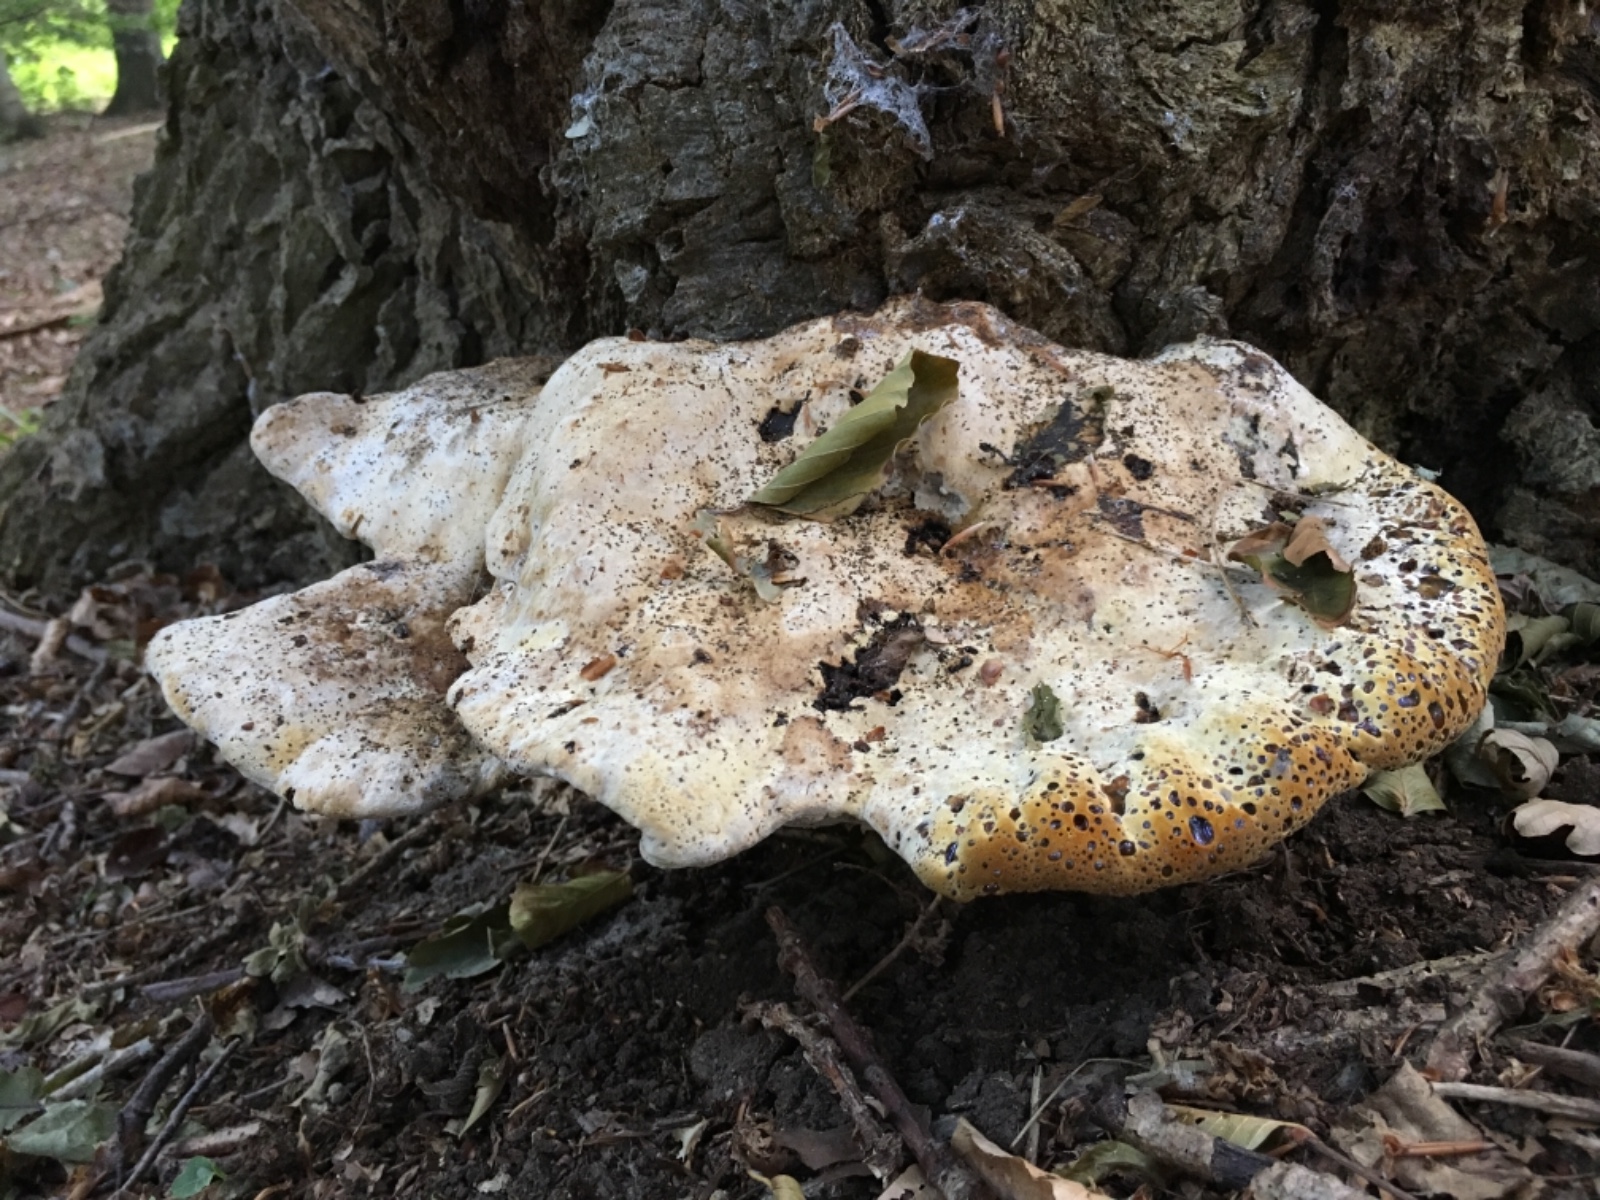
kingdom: Fungi
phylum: Basidiomycota
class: Agaricomycetes
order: Hymenochaetales
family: Hymenochaetaceae
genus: Pseudoinonotus
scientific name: Pseudoinonotus dryadeus
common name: ege-spejlporesvamp
